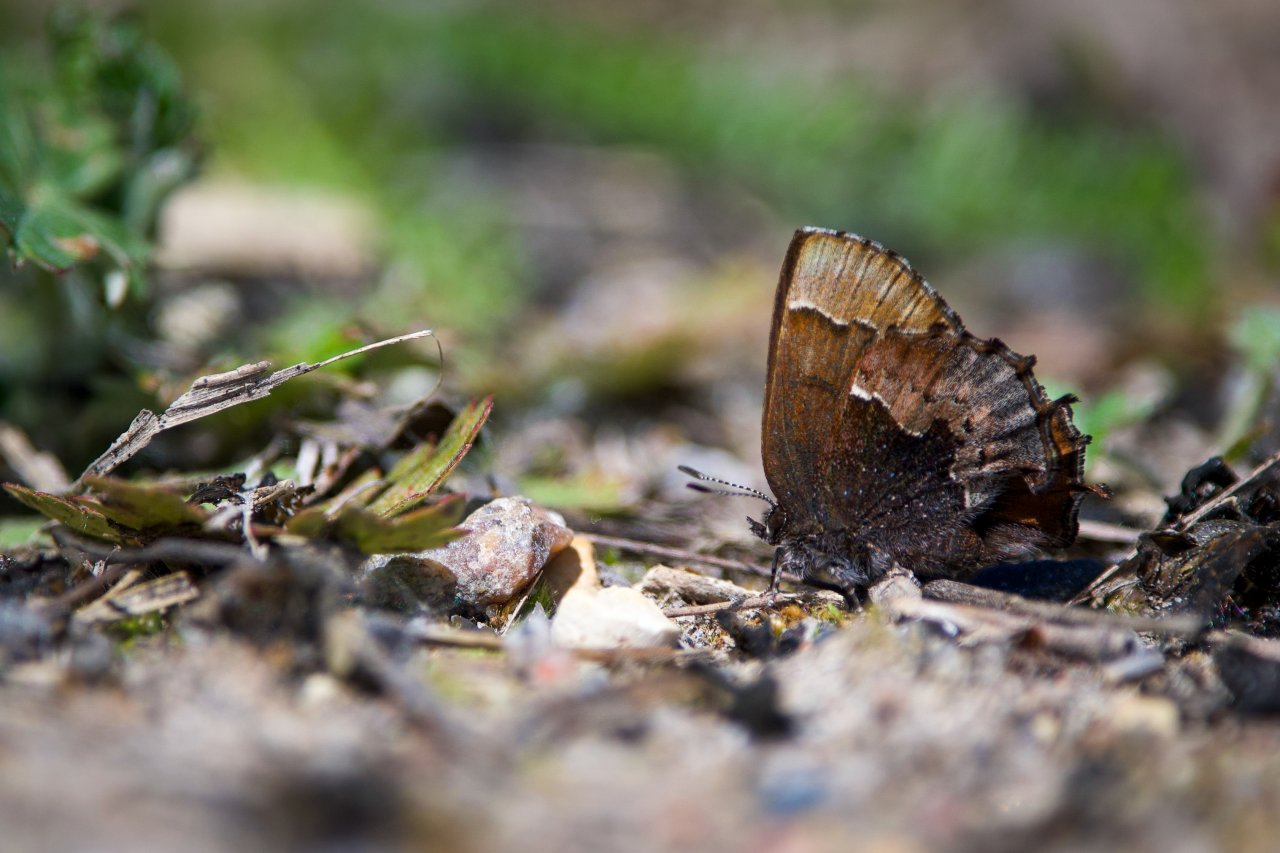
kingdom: Animalia
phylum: Arthropoda
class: Insecta
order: Lepidoptera
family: Lycaenidae
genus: Incisalia
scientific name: Incisalia henrici
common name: Henry's Elfin
